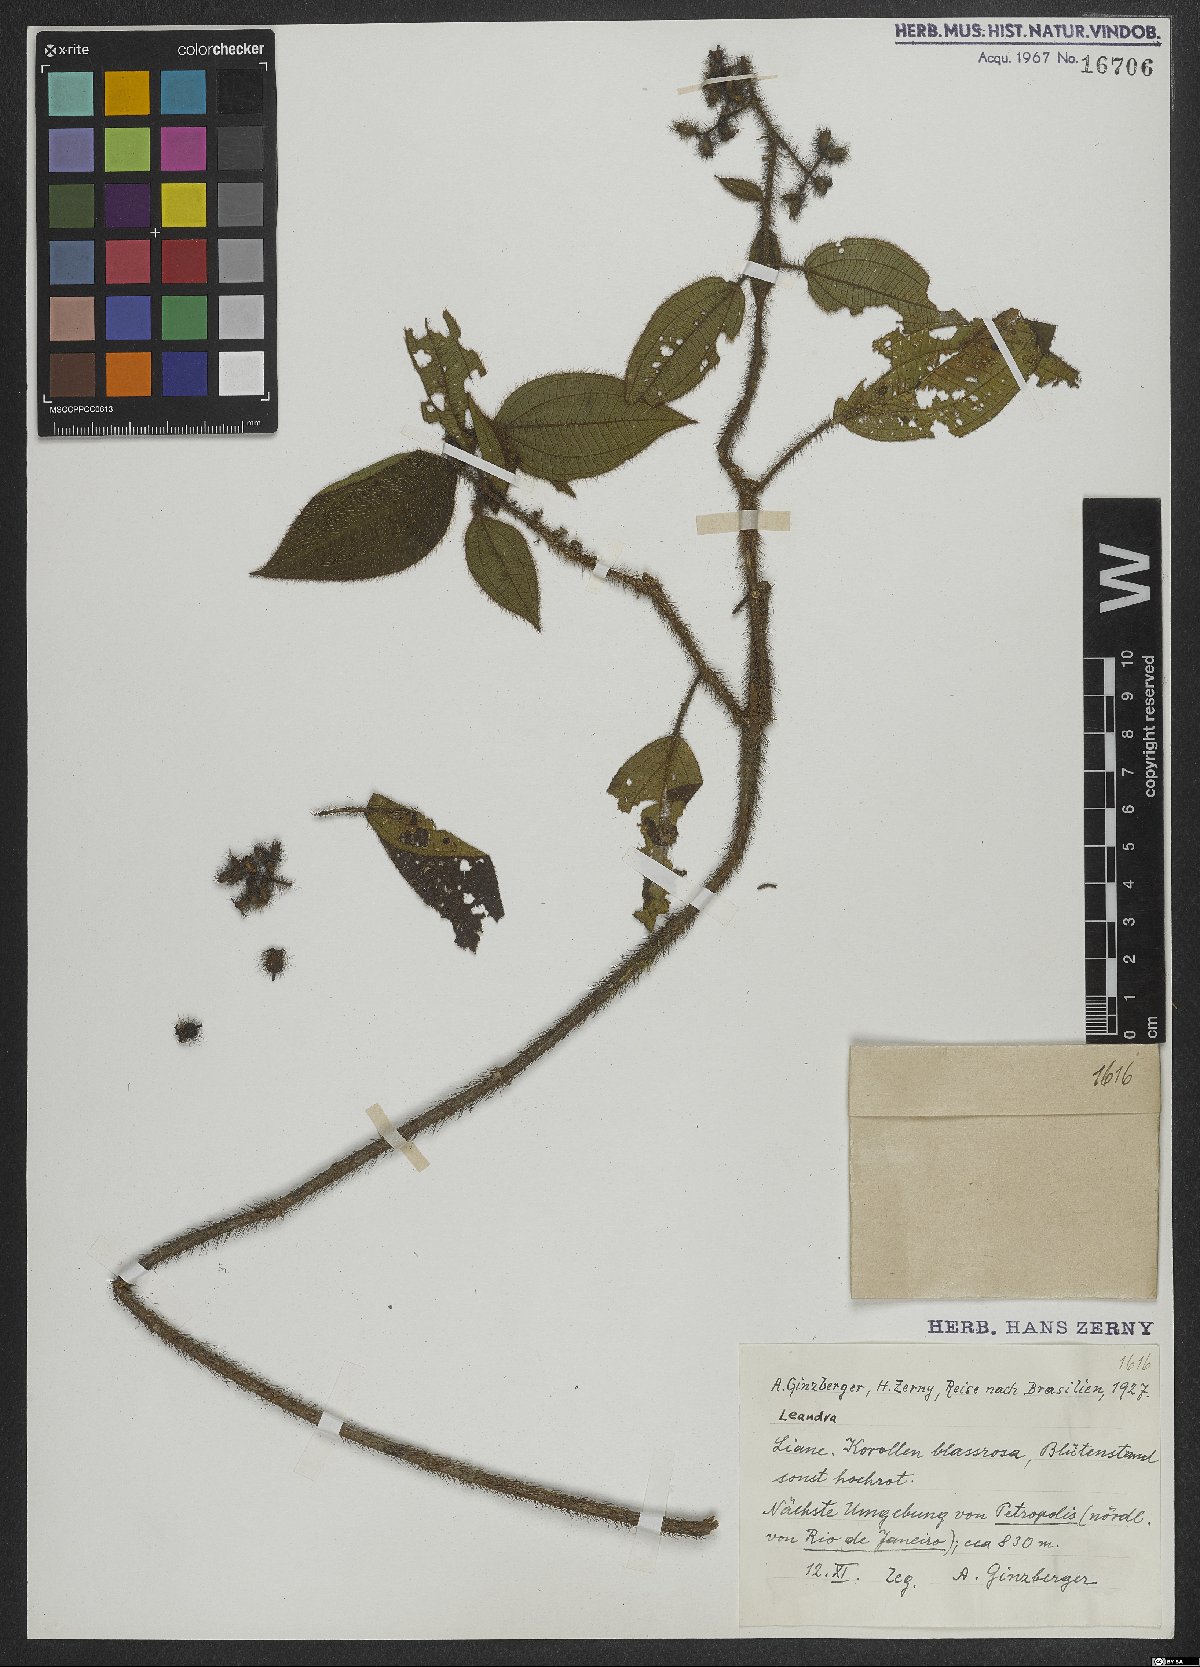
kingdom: Plantae
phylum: Tracheophyta
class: Magnoliopsida
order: Myrtales
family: Melastomataceae
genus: Miconia
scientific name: Miconia
